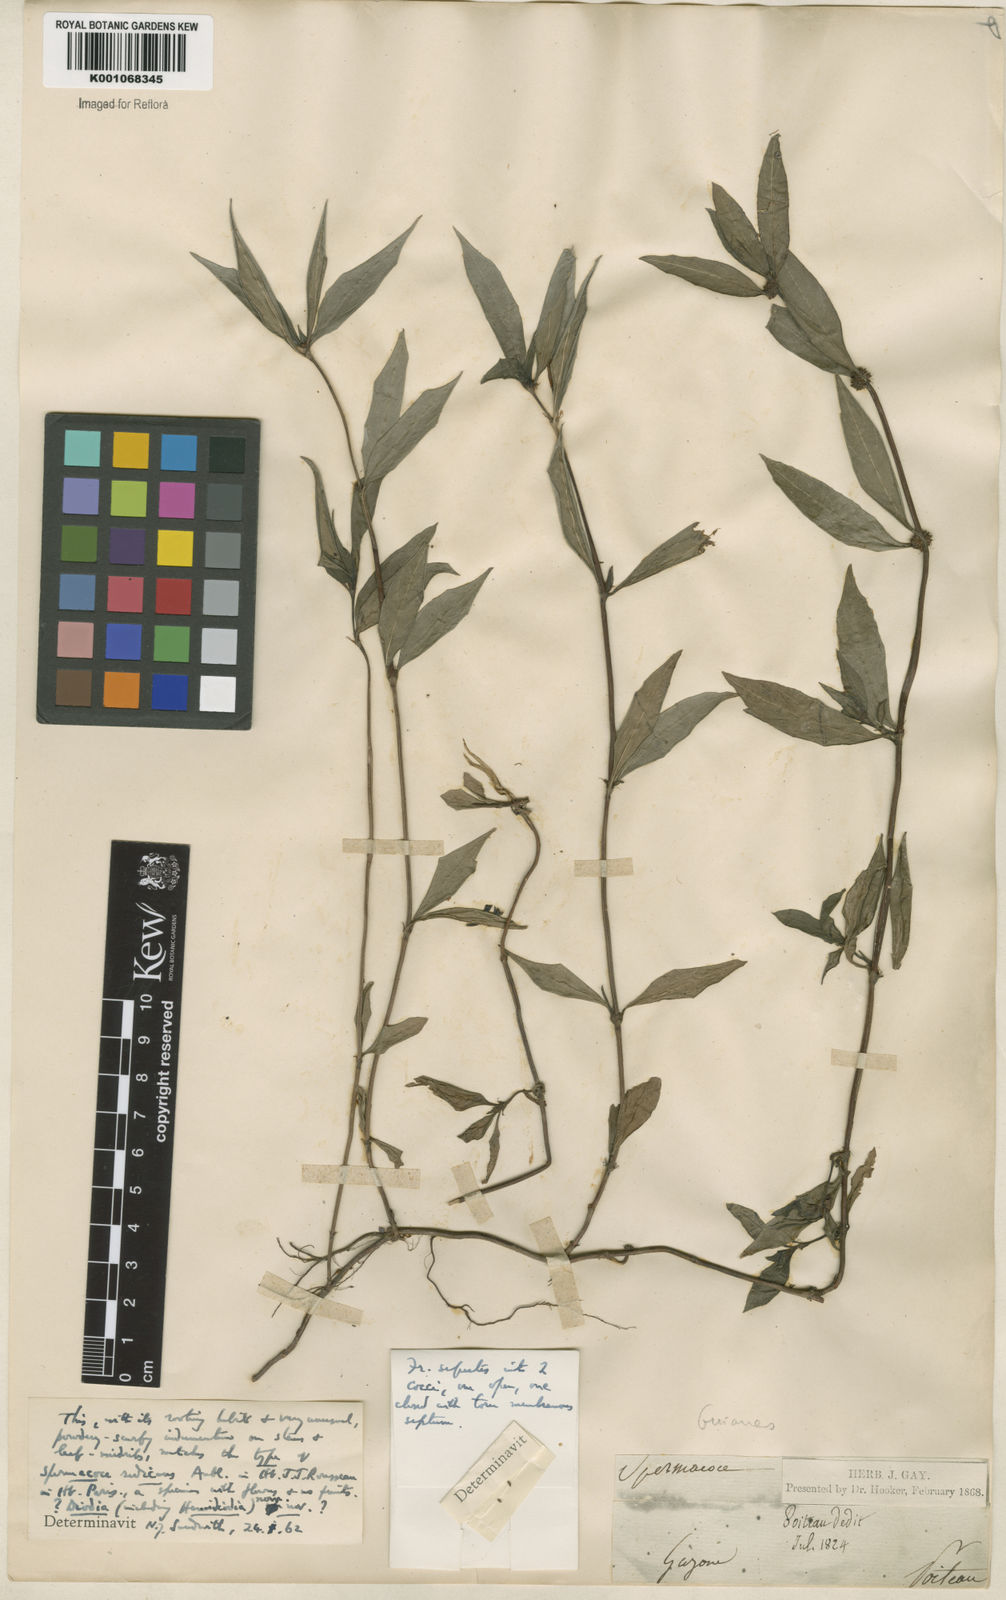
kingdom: Plantae
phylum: Tracheophyta
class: Magnoliopsida
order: Gentianales
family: Rubiaceae
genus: Spermacoce
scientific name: Spermacoce
